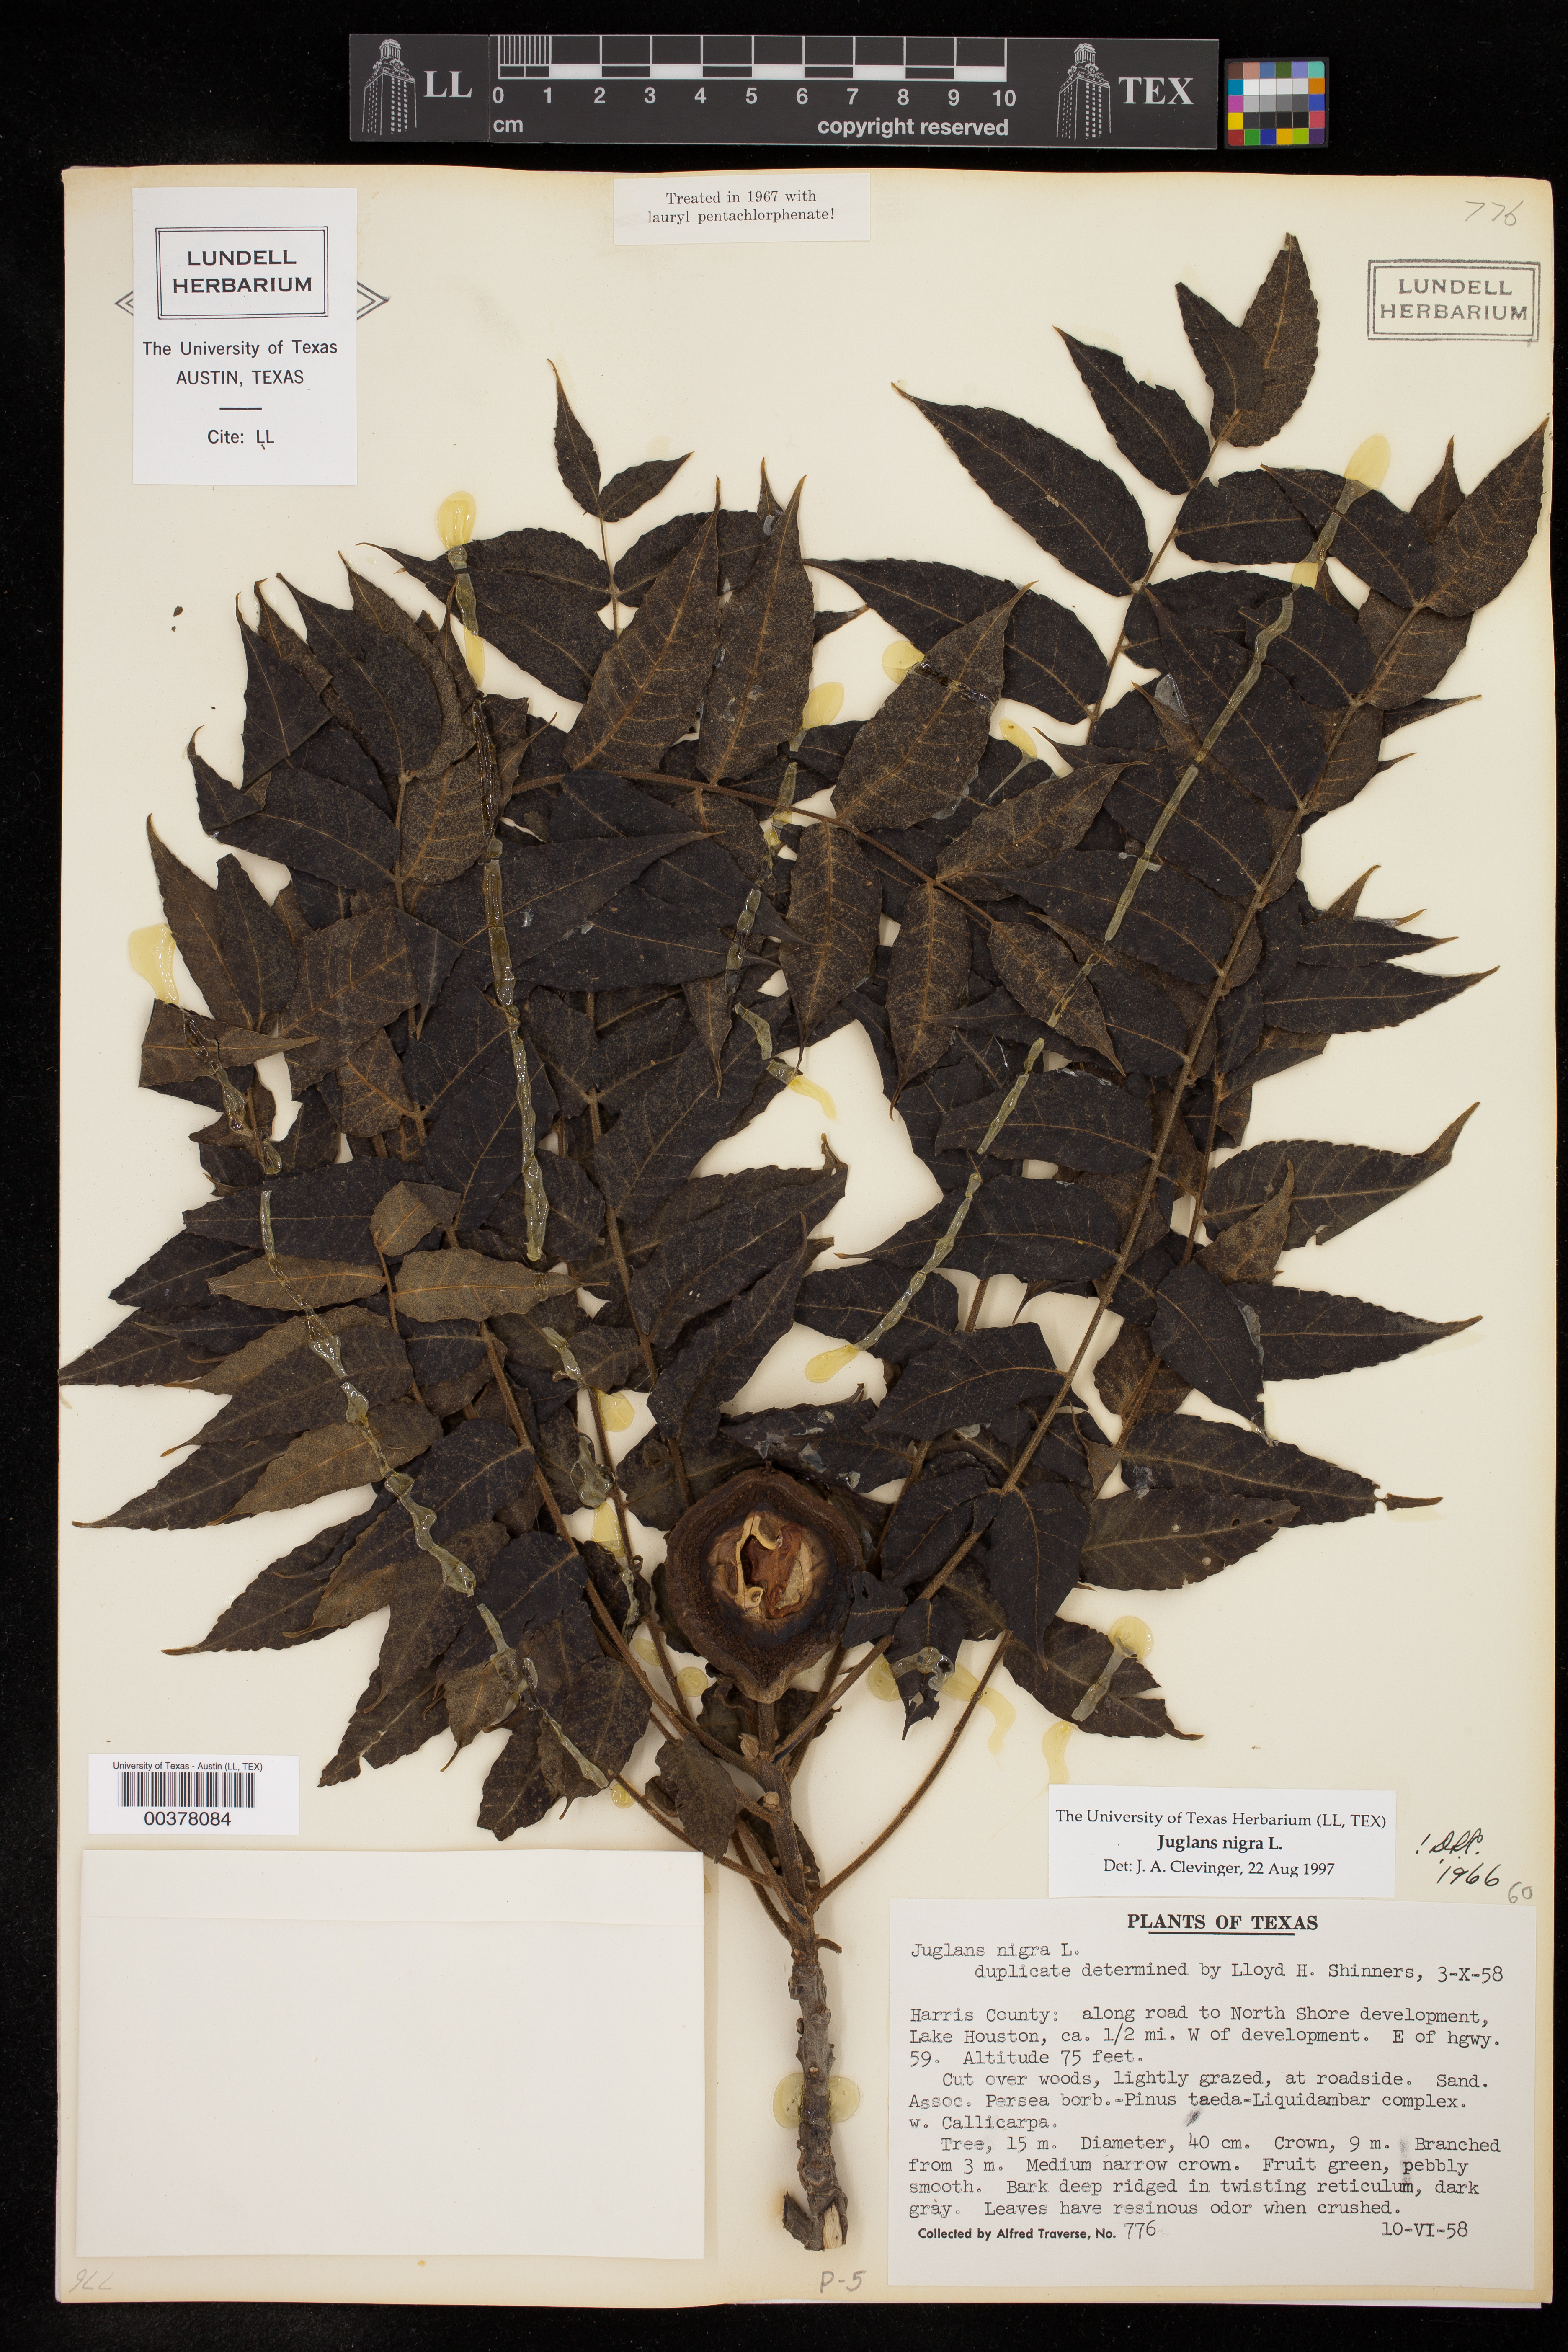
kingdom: Plantae
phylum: Tracheophyta
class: Magnoliopsida
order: Fagales
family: Juglandaceae
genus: Juglans
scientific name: Juglans nigra
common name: Black walnut
